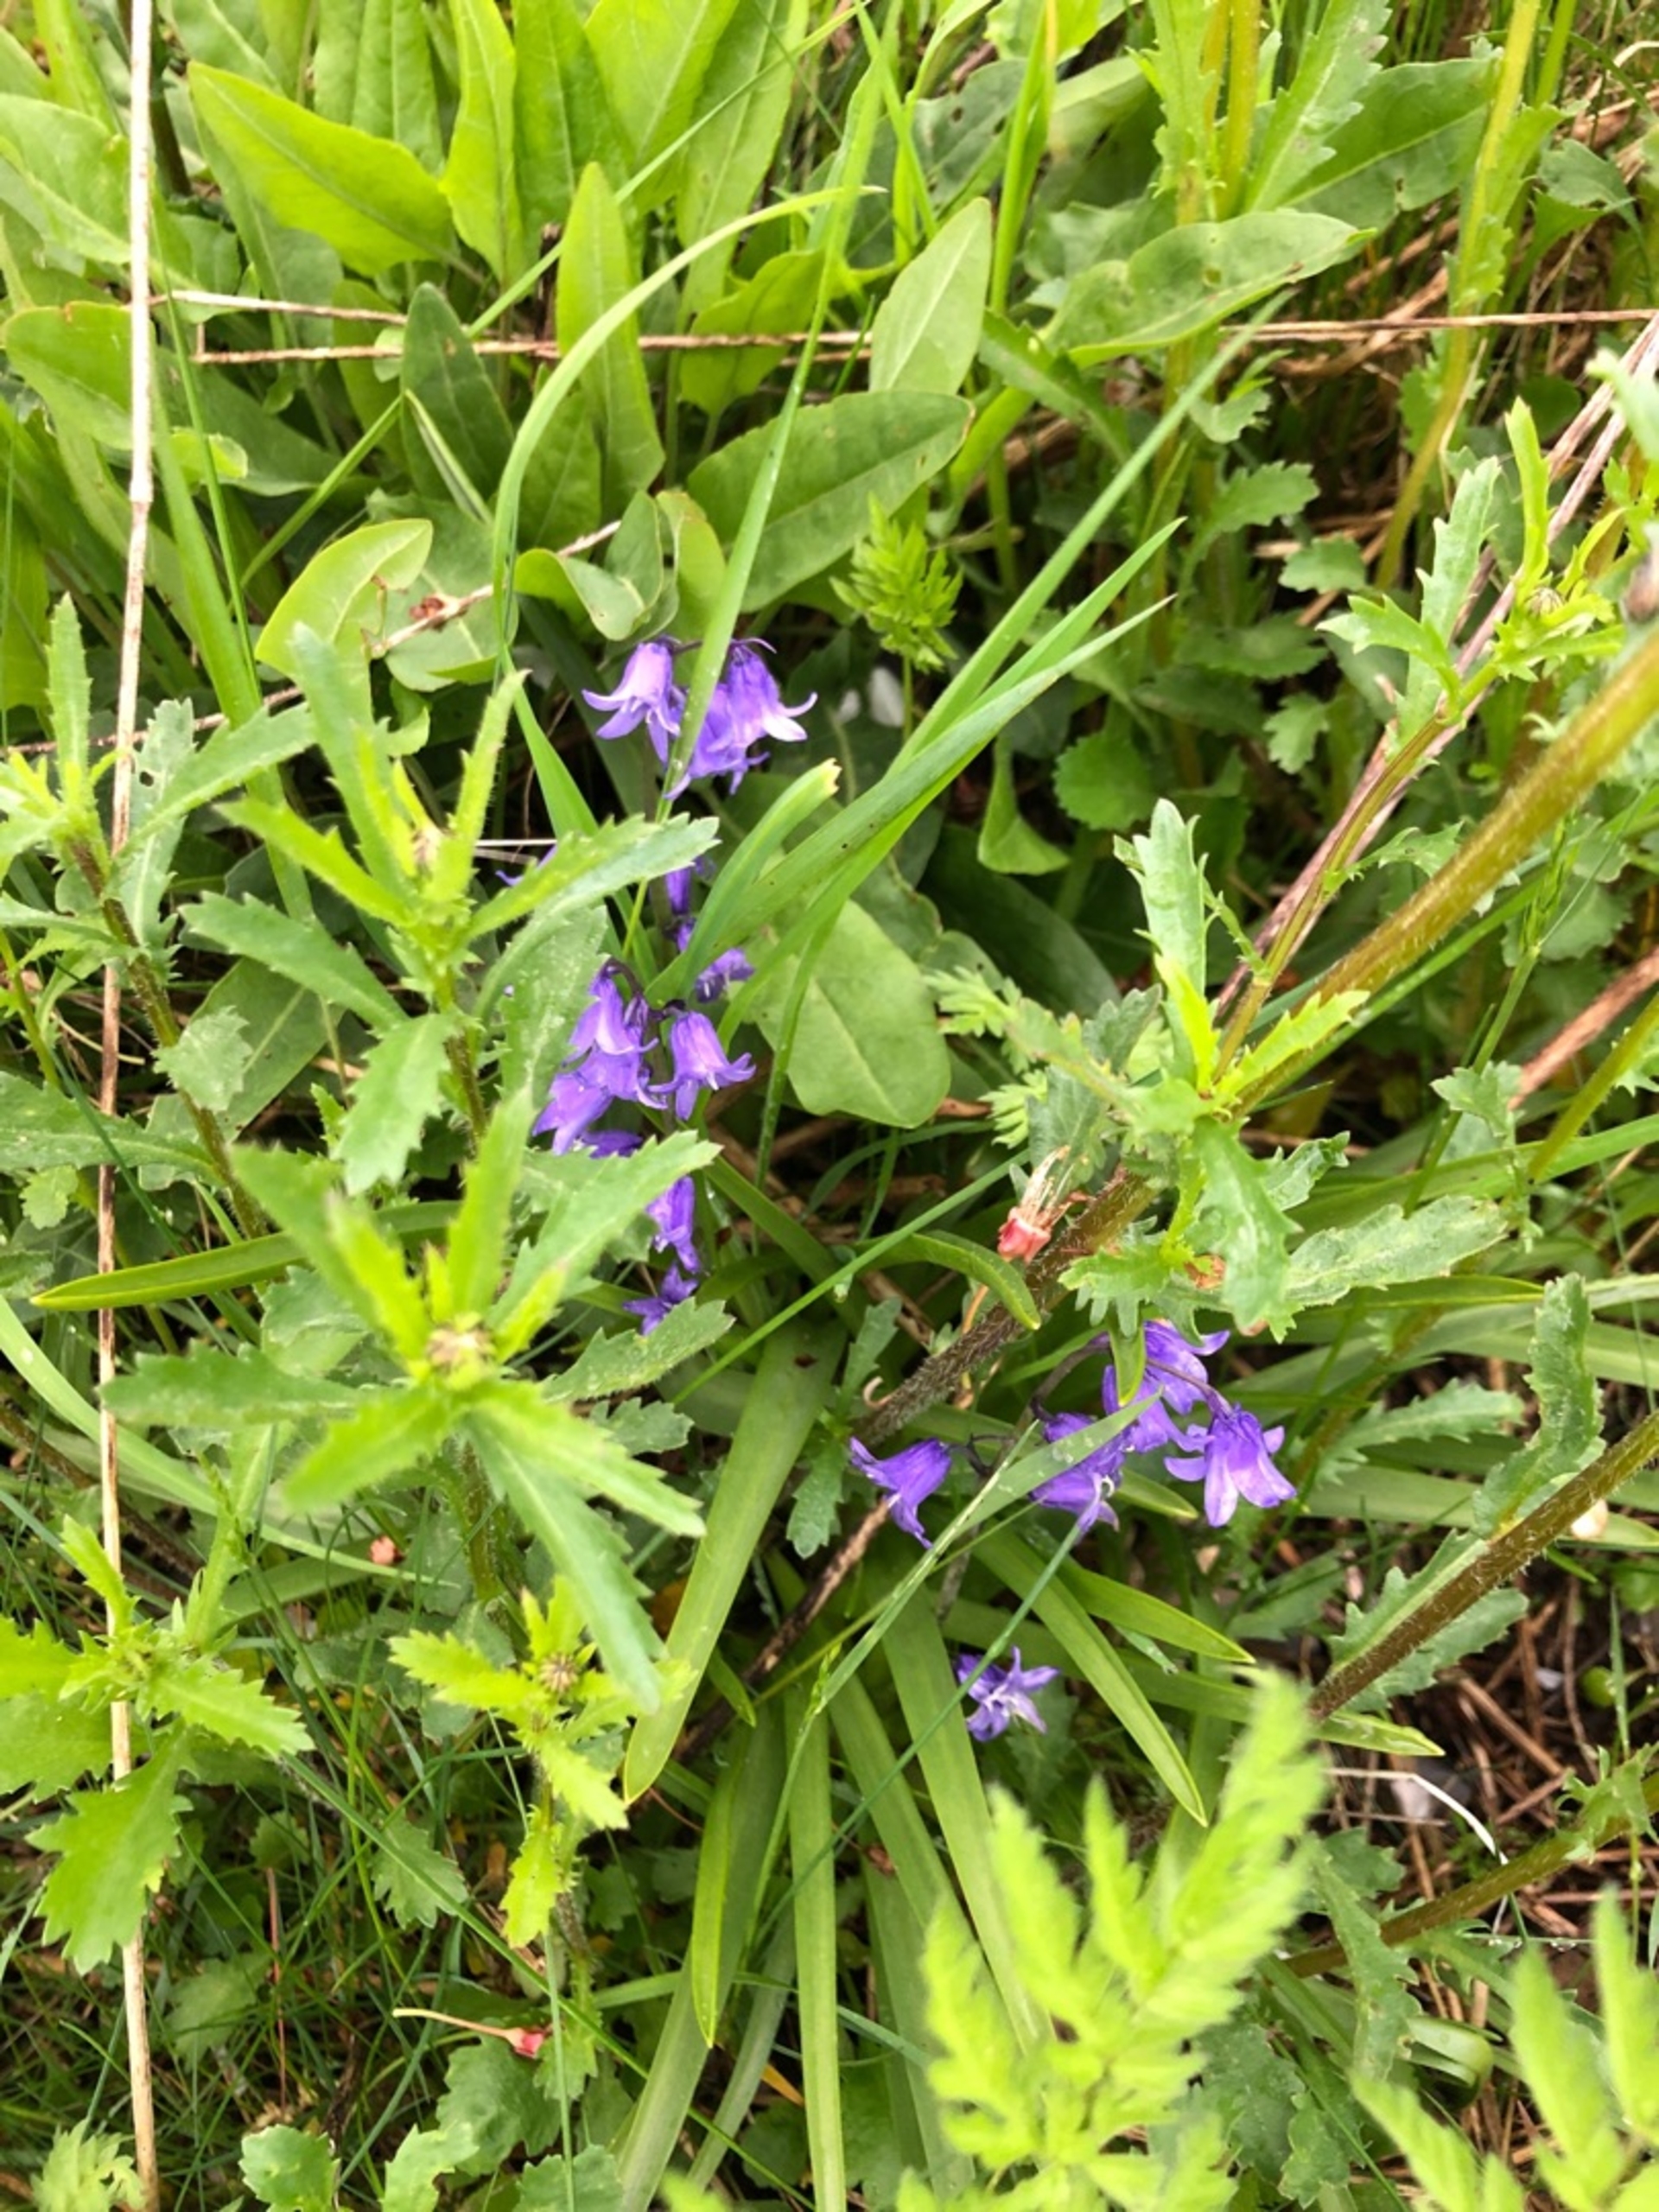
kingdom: Plantae
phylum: Tracheophyta
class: Liliopsida
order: Asparagales
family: Asparagaceae
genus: Hyacinthoides
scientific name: Hyacinthoides massartiana
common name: Hybrid-klokkeskilla
